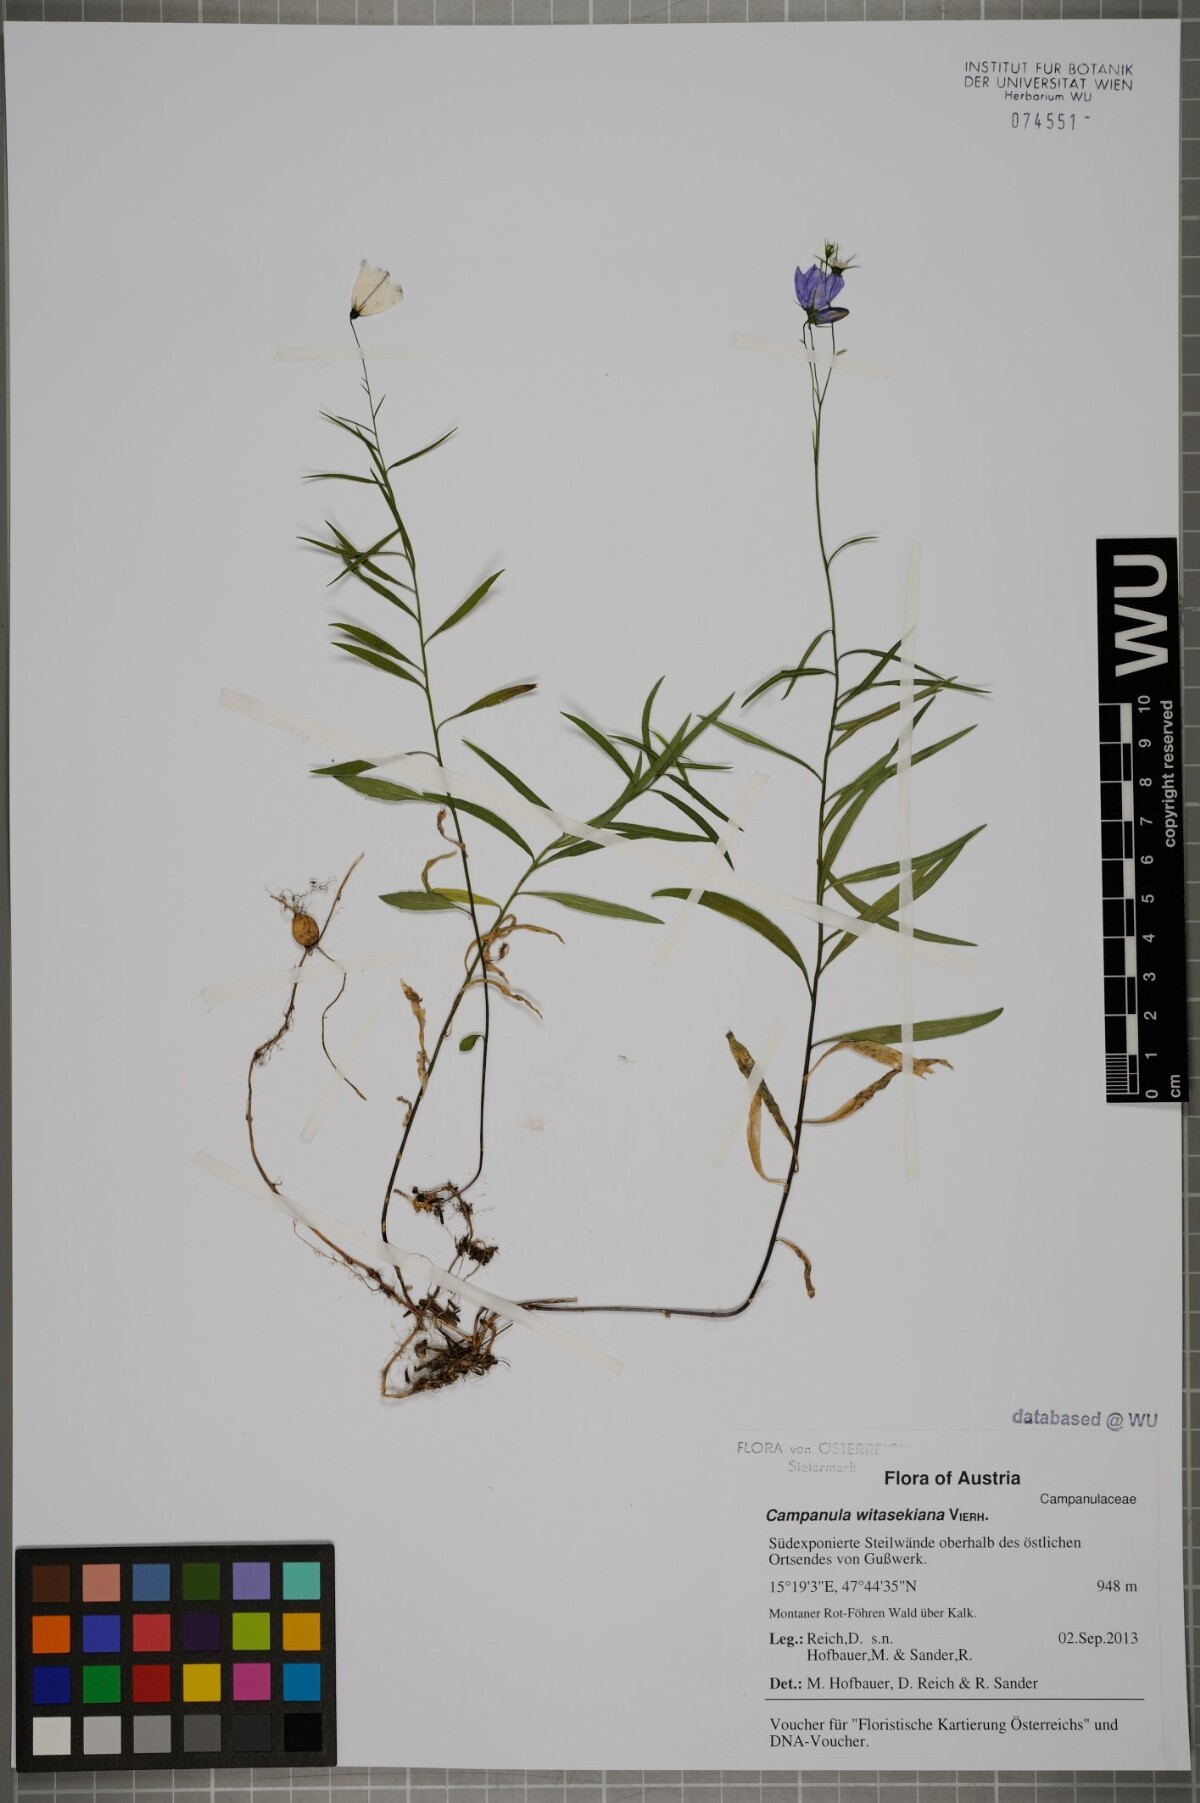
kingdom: Plantae
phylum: Tracheophyta
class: Magnoliopsida
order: Asterales
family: Campanulaceae
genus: Campanula
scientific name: Campanula witasekiana
